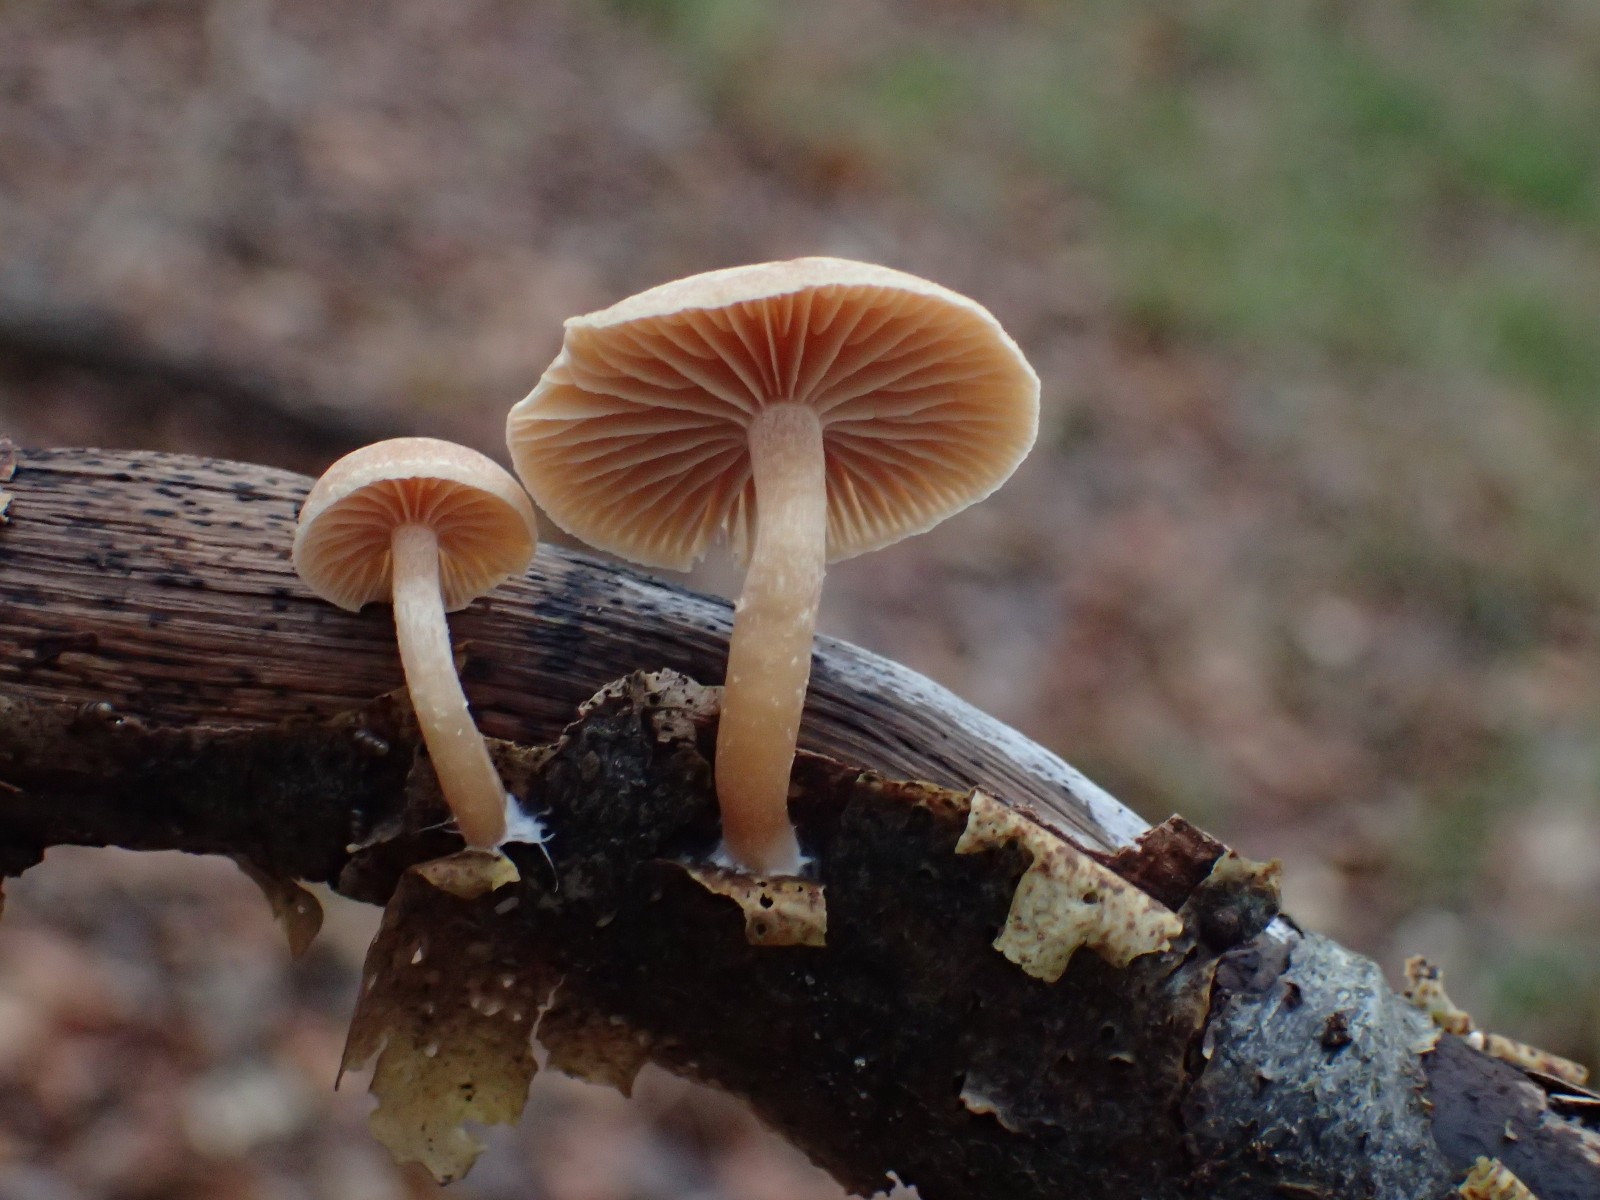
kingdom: Fungi
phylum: Basidiomycota
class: Agaricomycetes
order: Agaricales
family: Tubariaceae
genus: Tubaria
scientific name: Tubaria furfuracea
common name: kliddet fnughat
